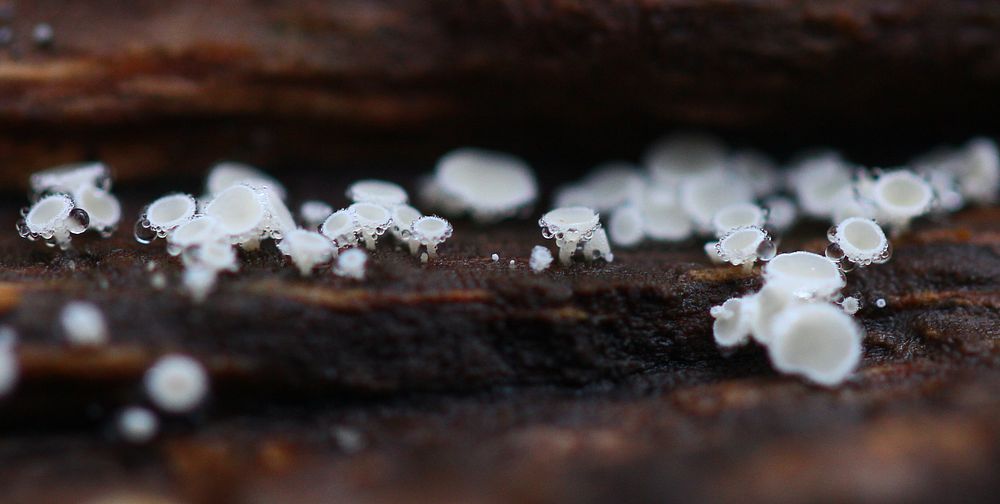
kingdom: Fungi
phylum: Ascomycota
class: Leotiomycetes
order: Helotiales
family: Lachnaceae
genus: Lachnum
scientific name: Lachnum impudicum
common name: vinter-frynseskive
